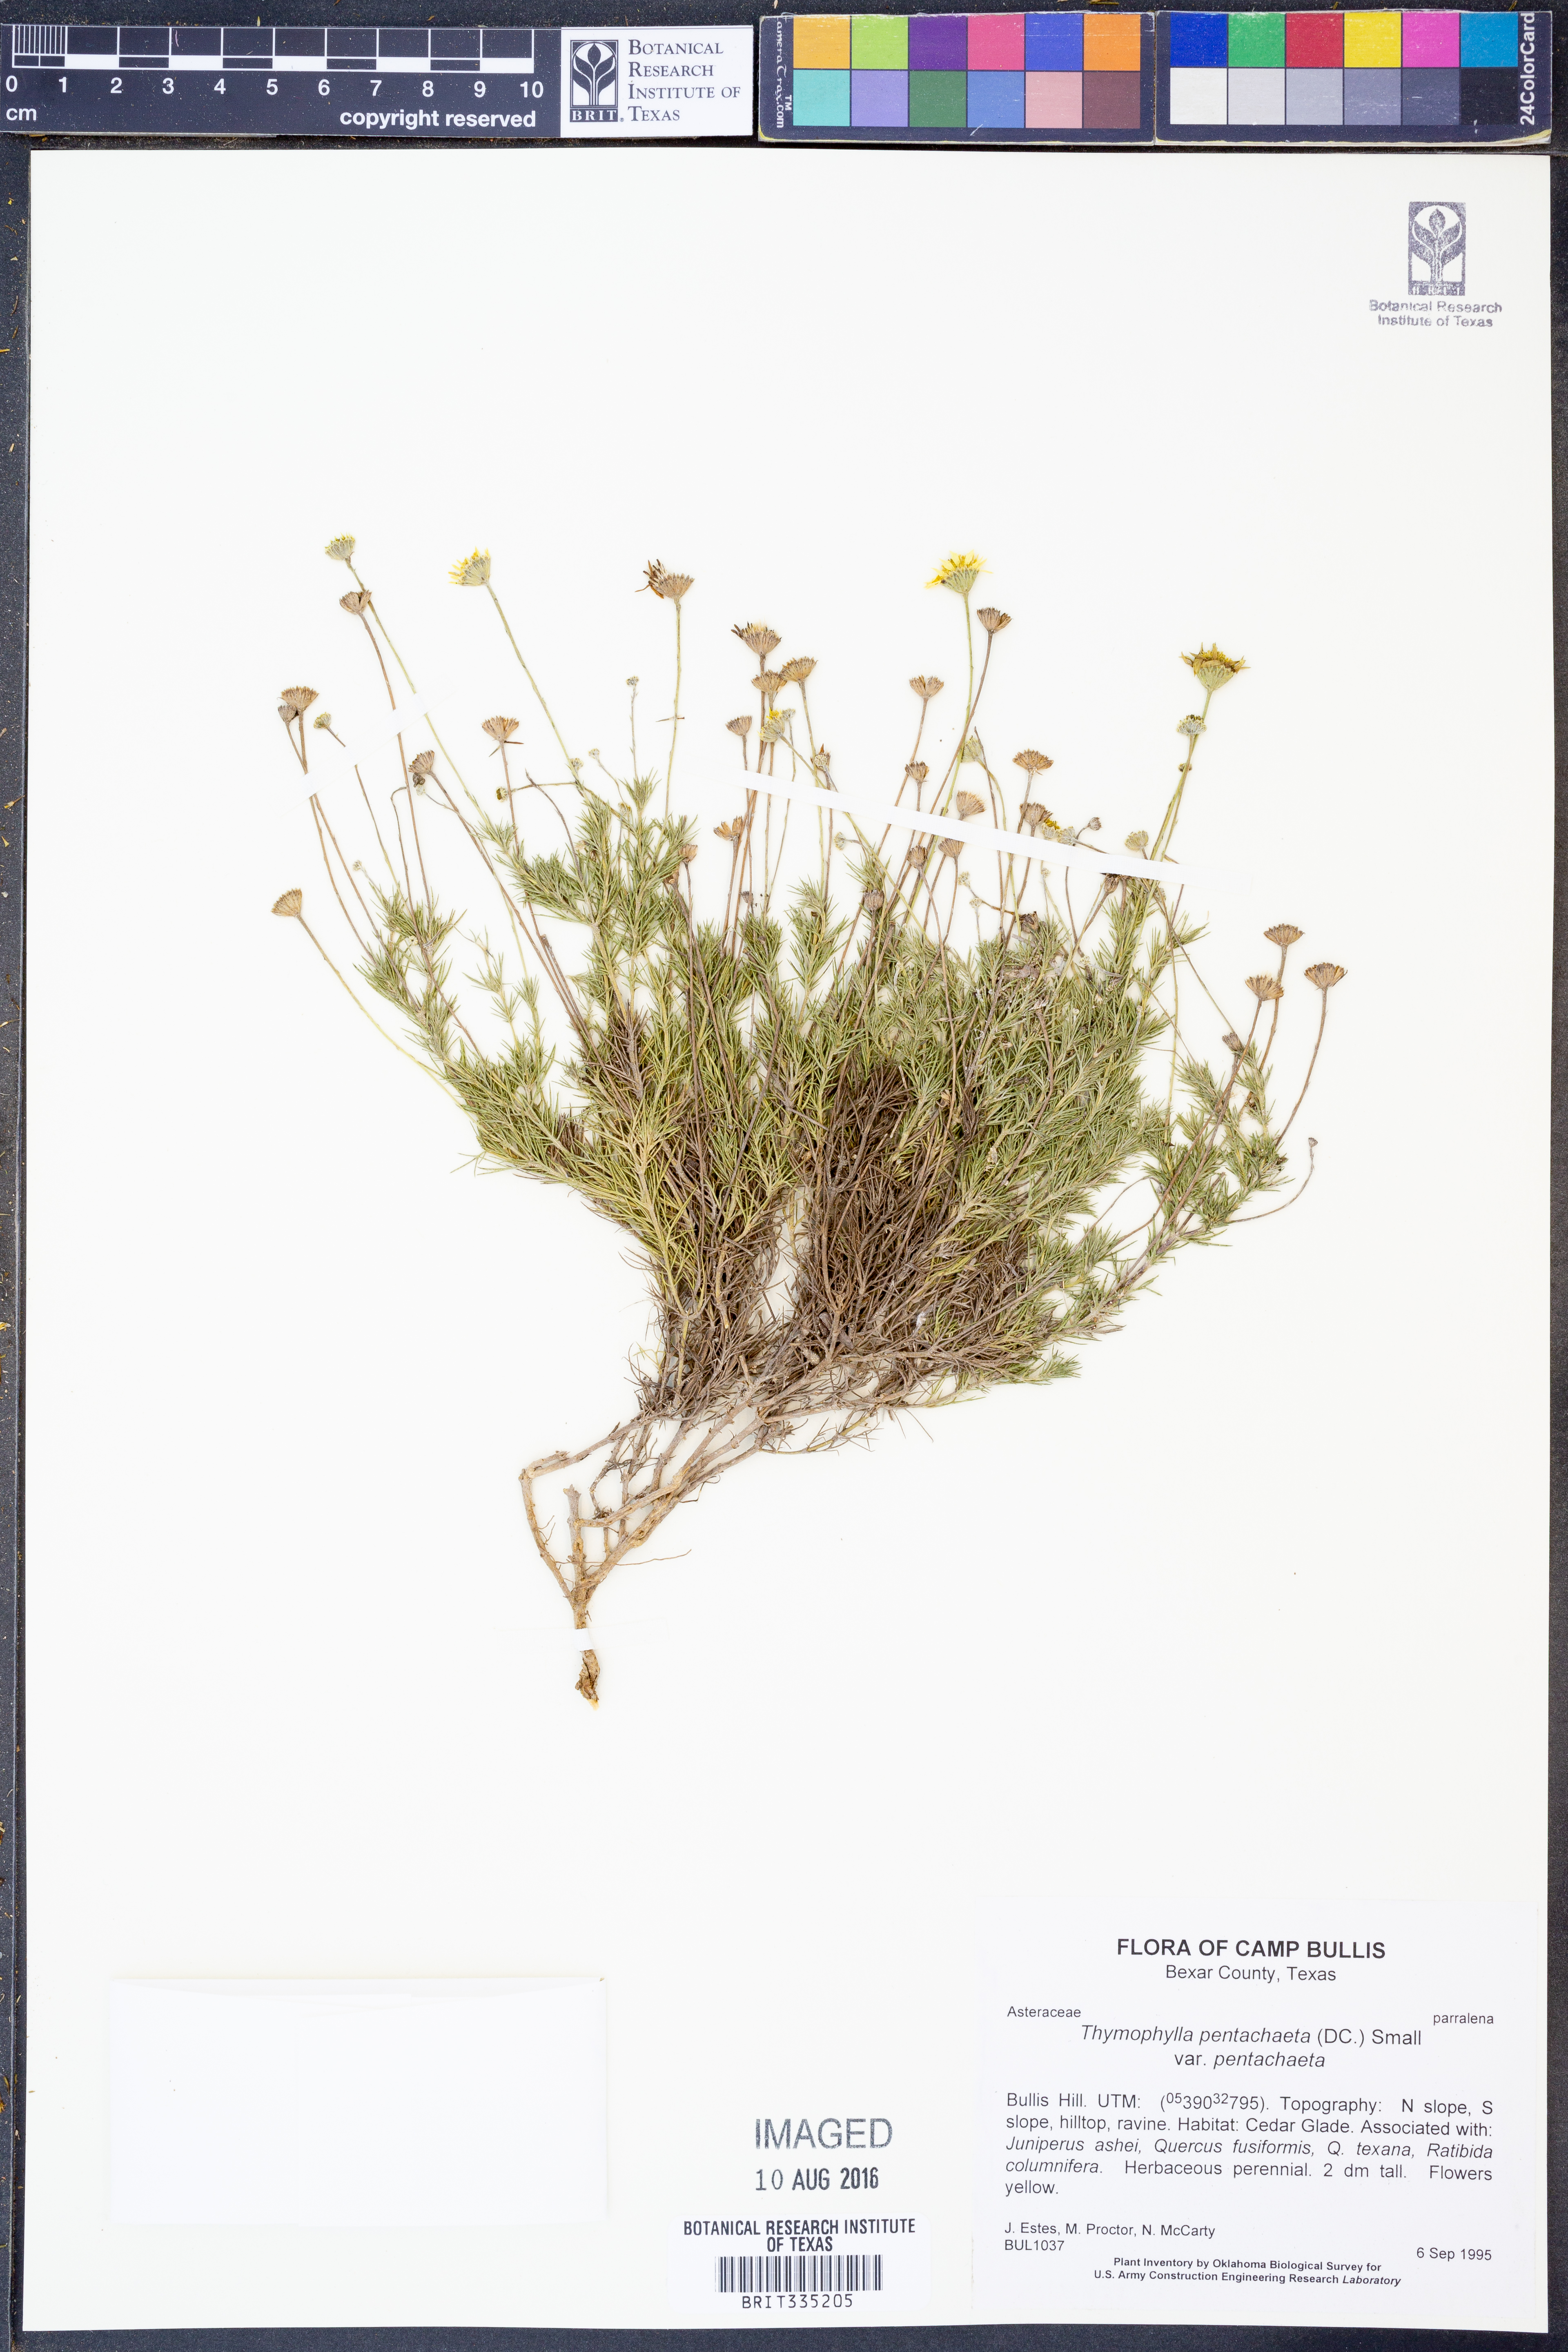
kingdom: Plantae
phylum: Tracheophyta
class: Magnoliopsida
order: Asterales
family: Asteraceae
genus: Thymophylla
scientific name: Thymophylla pentachaeta
